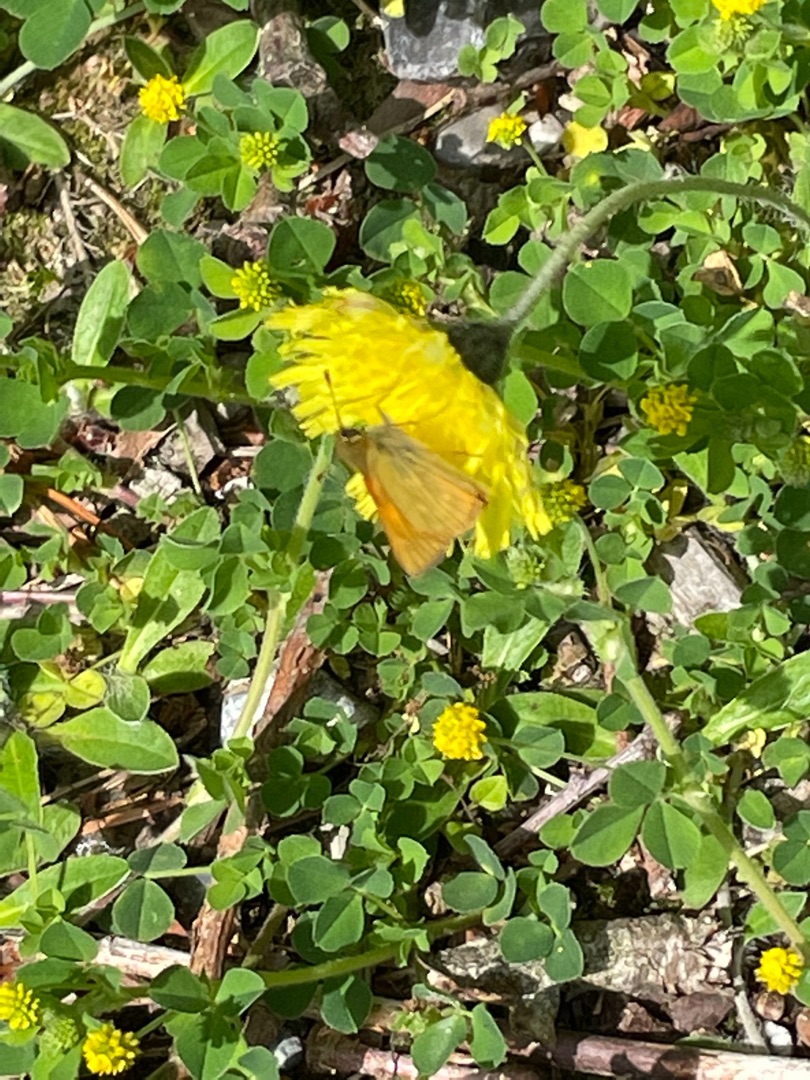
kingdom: Animalia
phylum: Arthropoda
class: Insecta
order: Lepidoptera
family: Hesperiidae
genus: Ochlodes
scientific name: Ochlodes venata
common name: Stor bredpande
